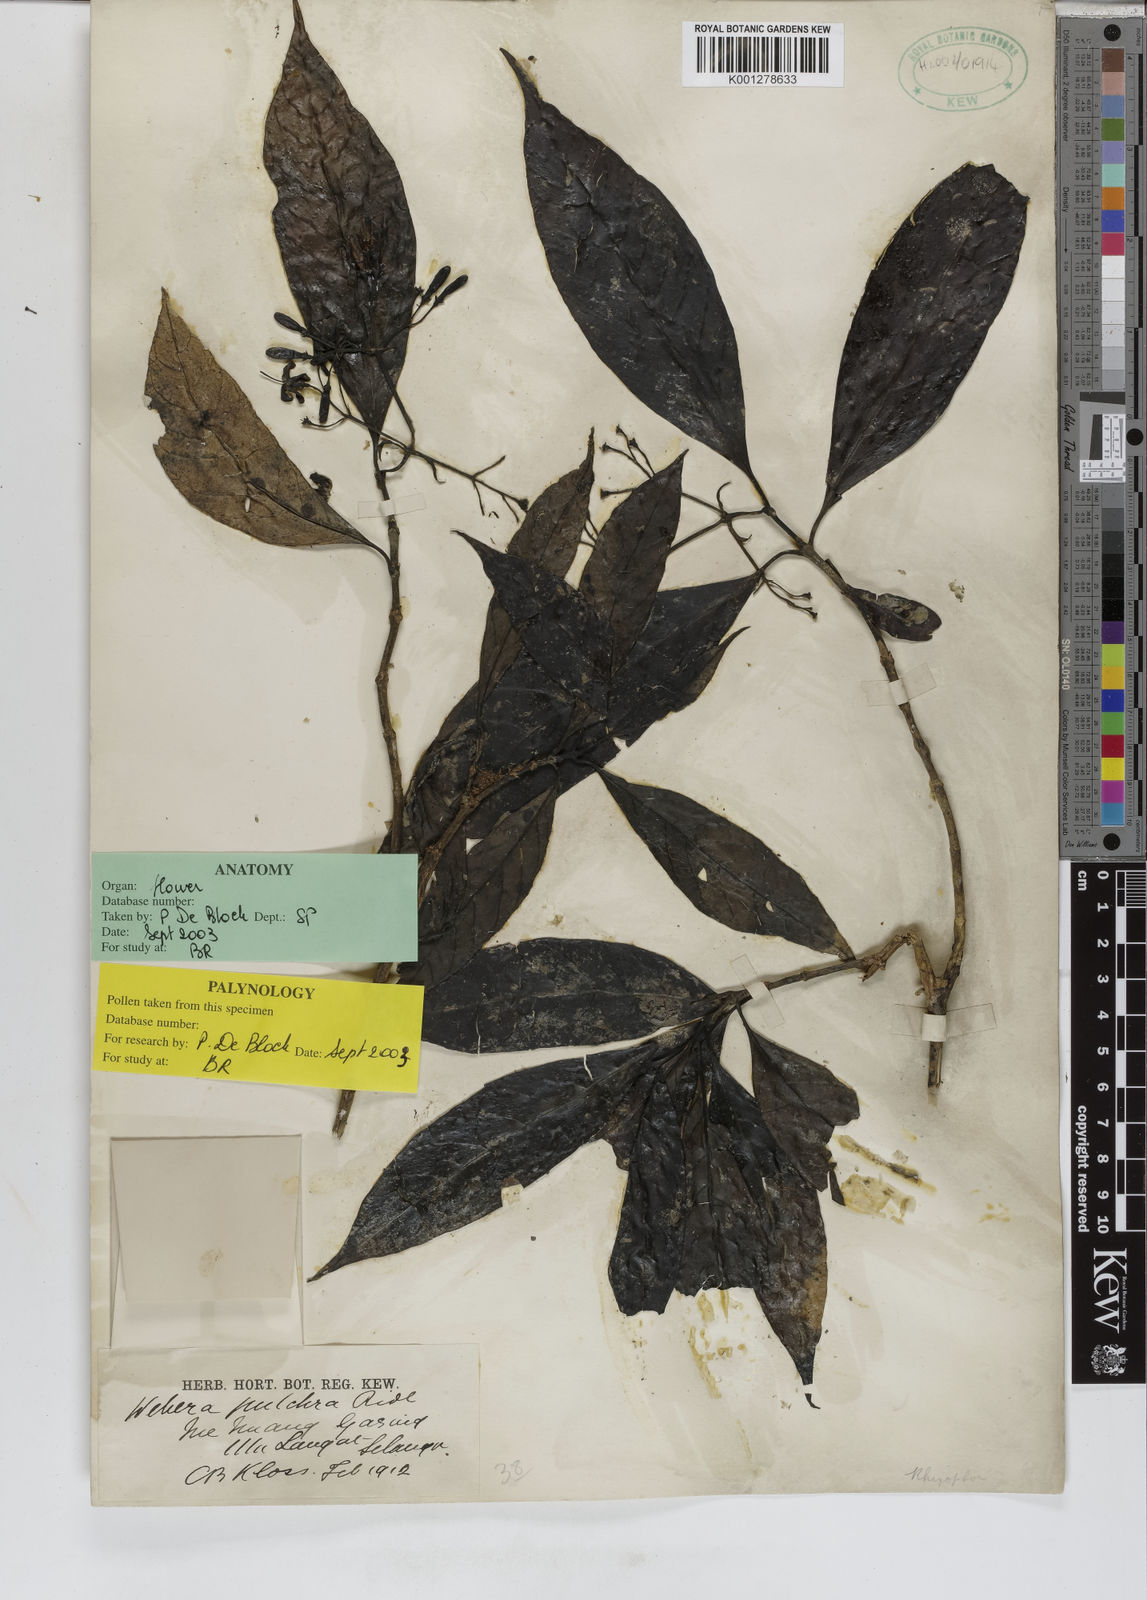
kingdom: Plantae
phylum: Tracheophyta
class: Magnoliopsida
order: Gentianales
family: Rubiaceae
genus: Tarenna
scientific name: Tarenna pulchra
